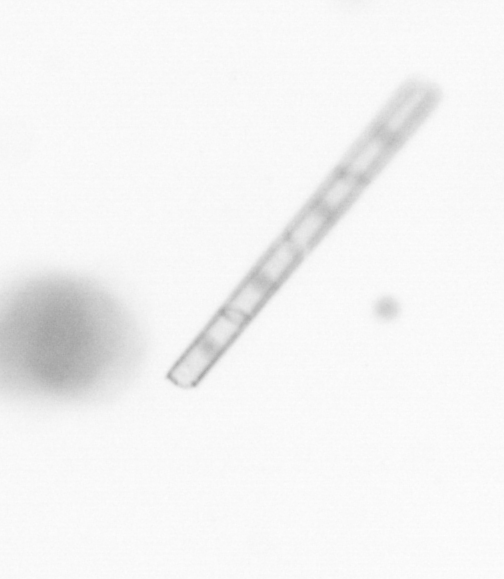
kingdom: Chromista
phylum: Ochrophyta
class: Bacillariophyceae
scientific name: Bacillariophyceae
